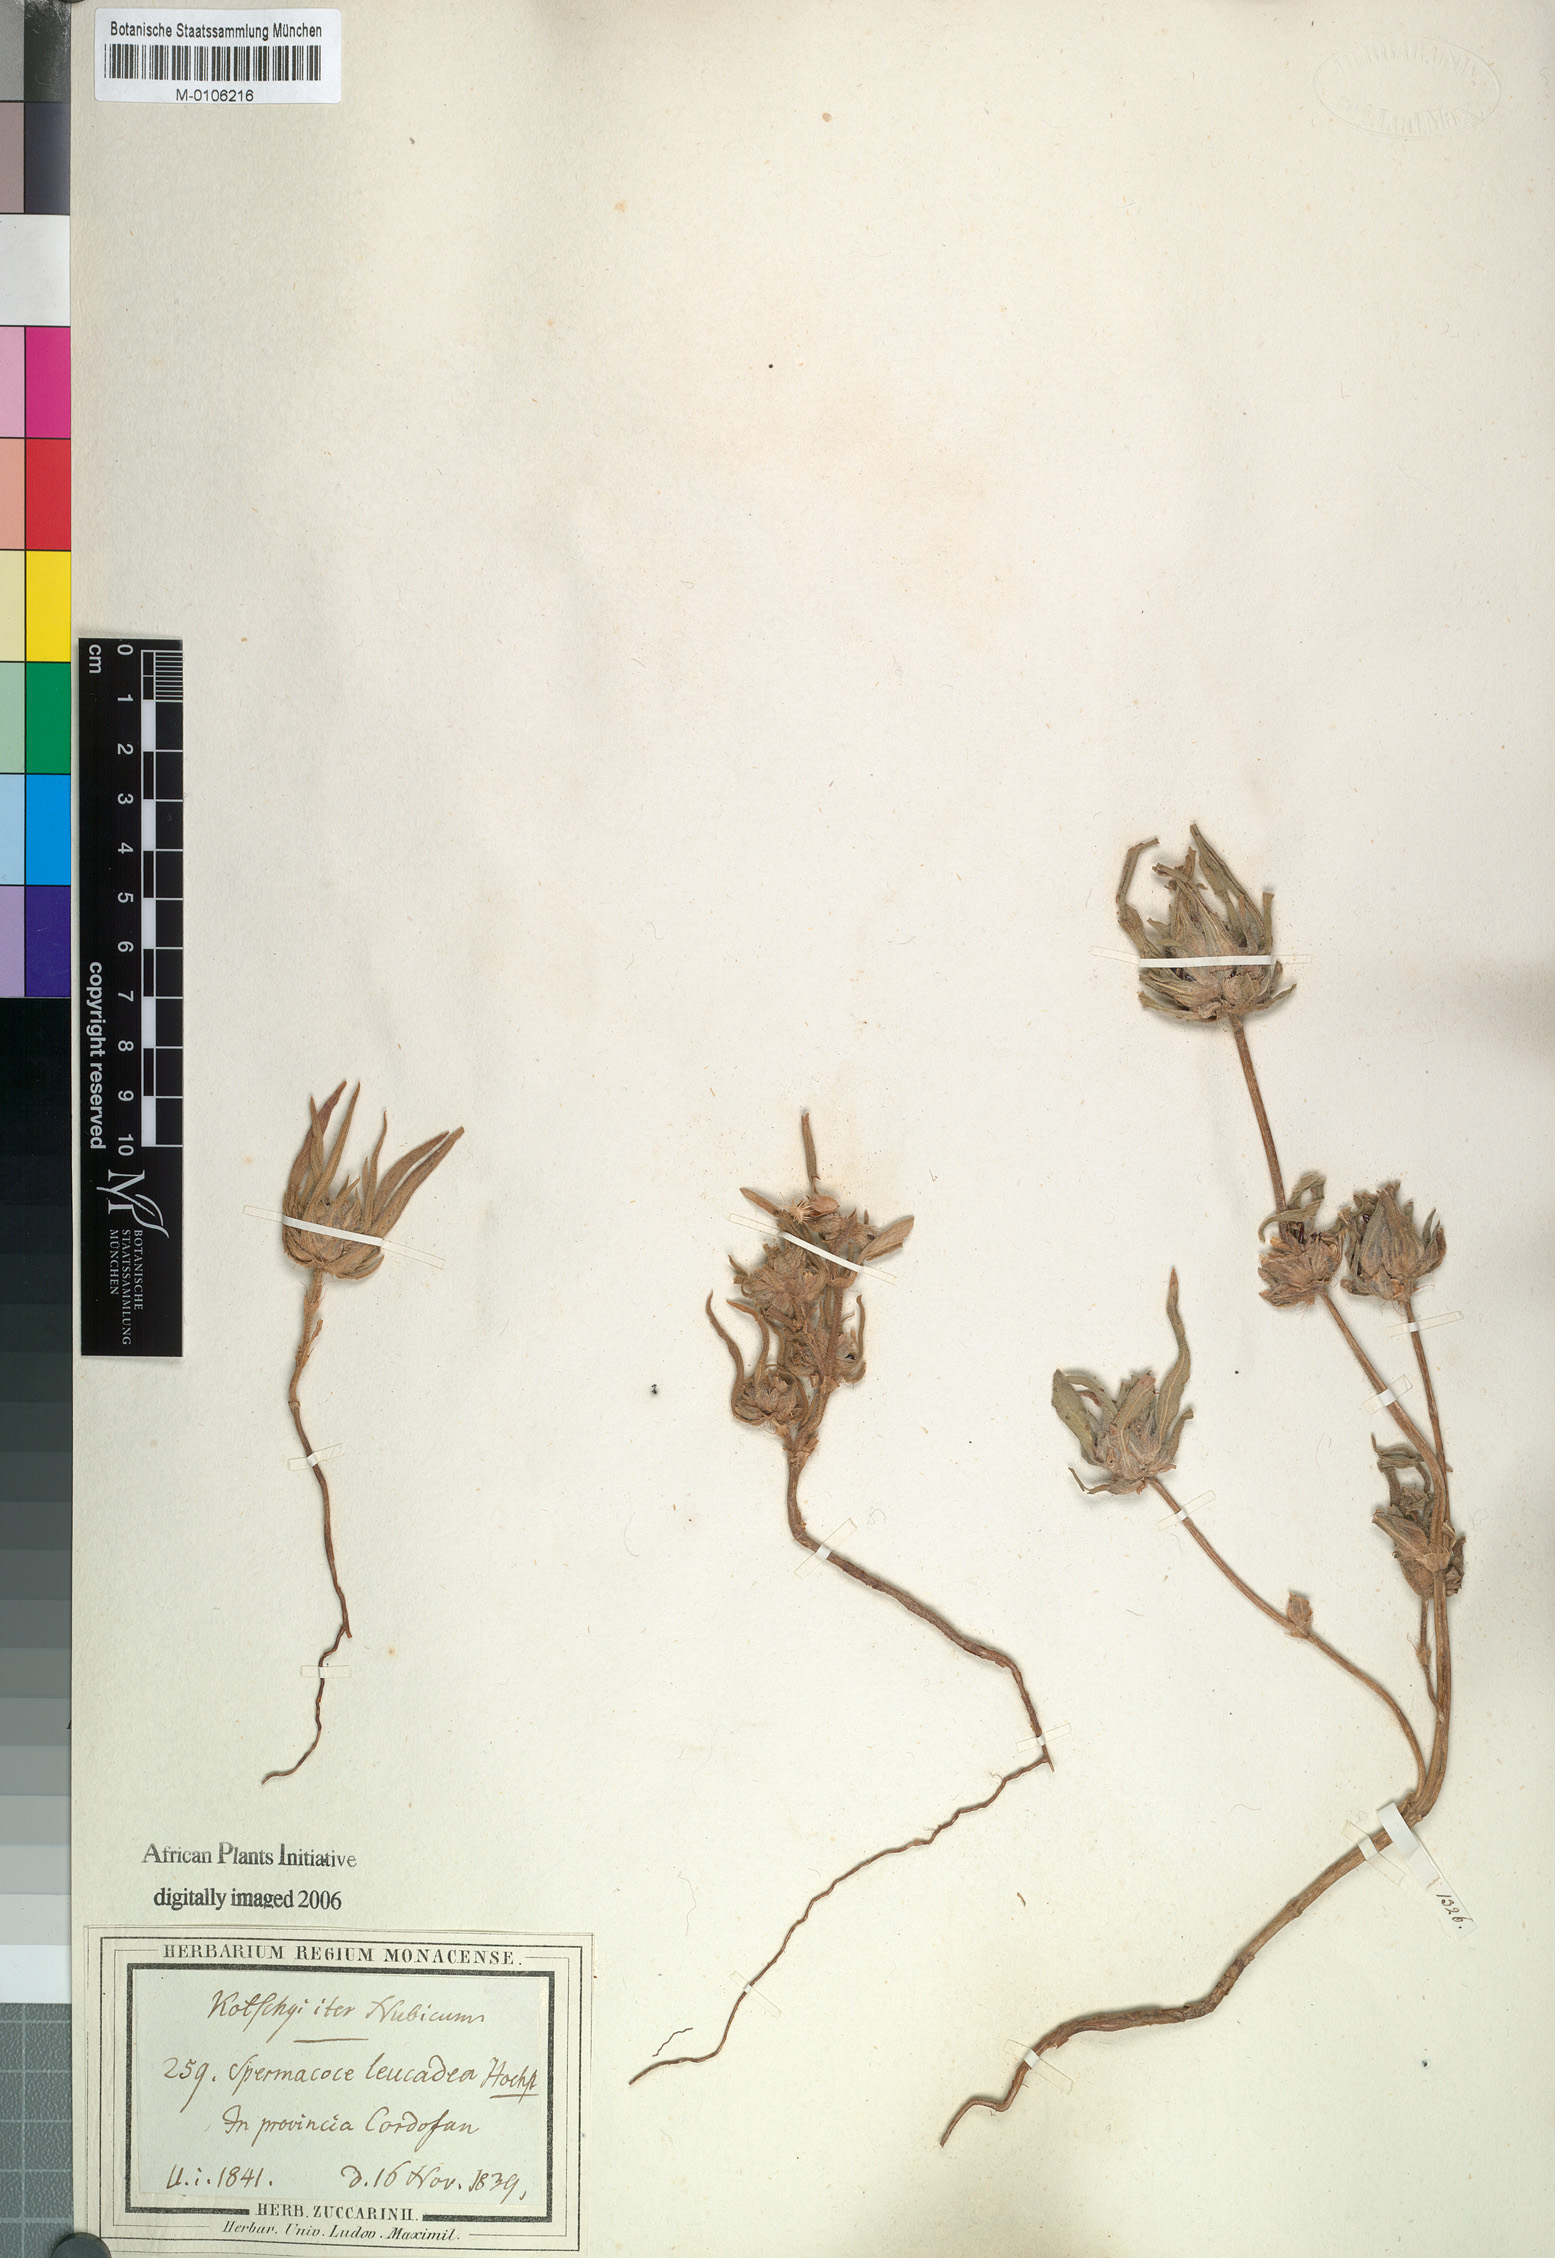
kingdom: Plantae
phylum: Tracheophyta
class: Magnoliopsida
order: Gentianales
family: Rubiaceae
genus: Spermacoce
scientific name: Spermacoce stachydea
